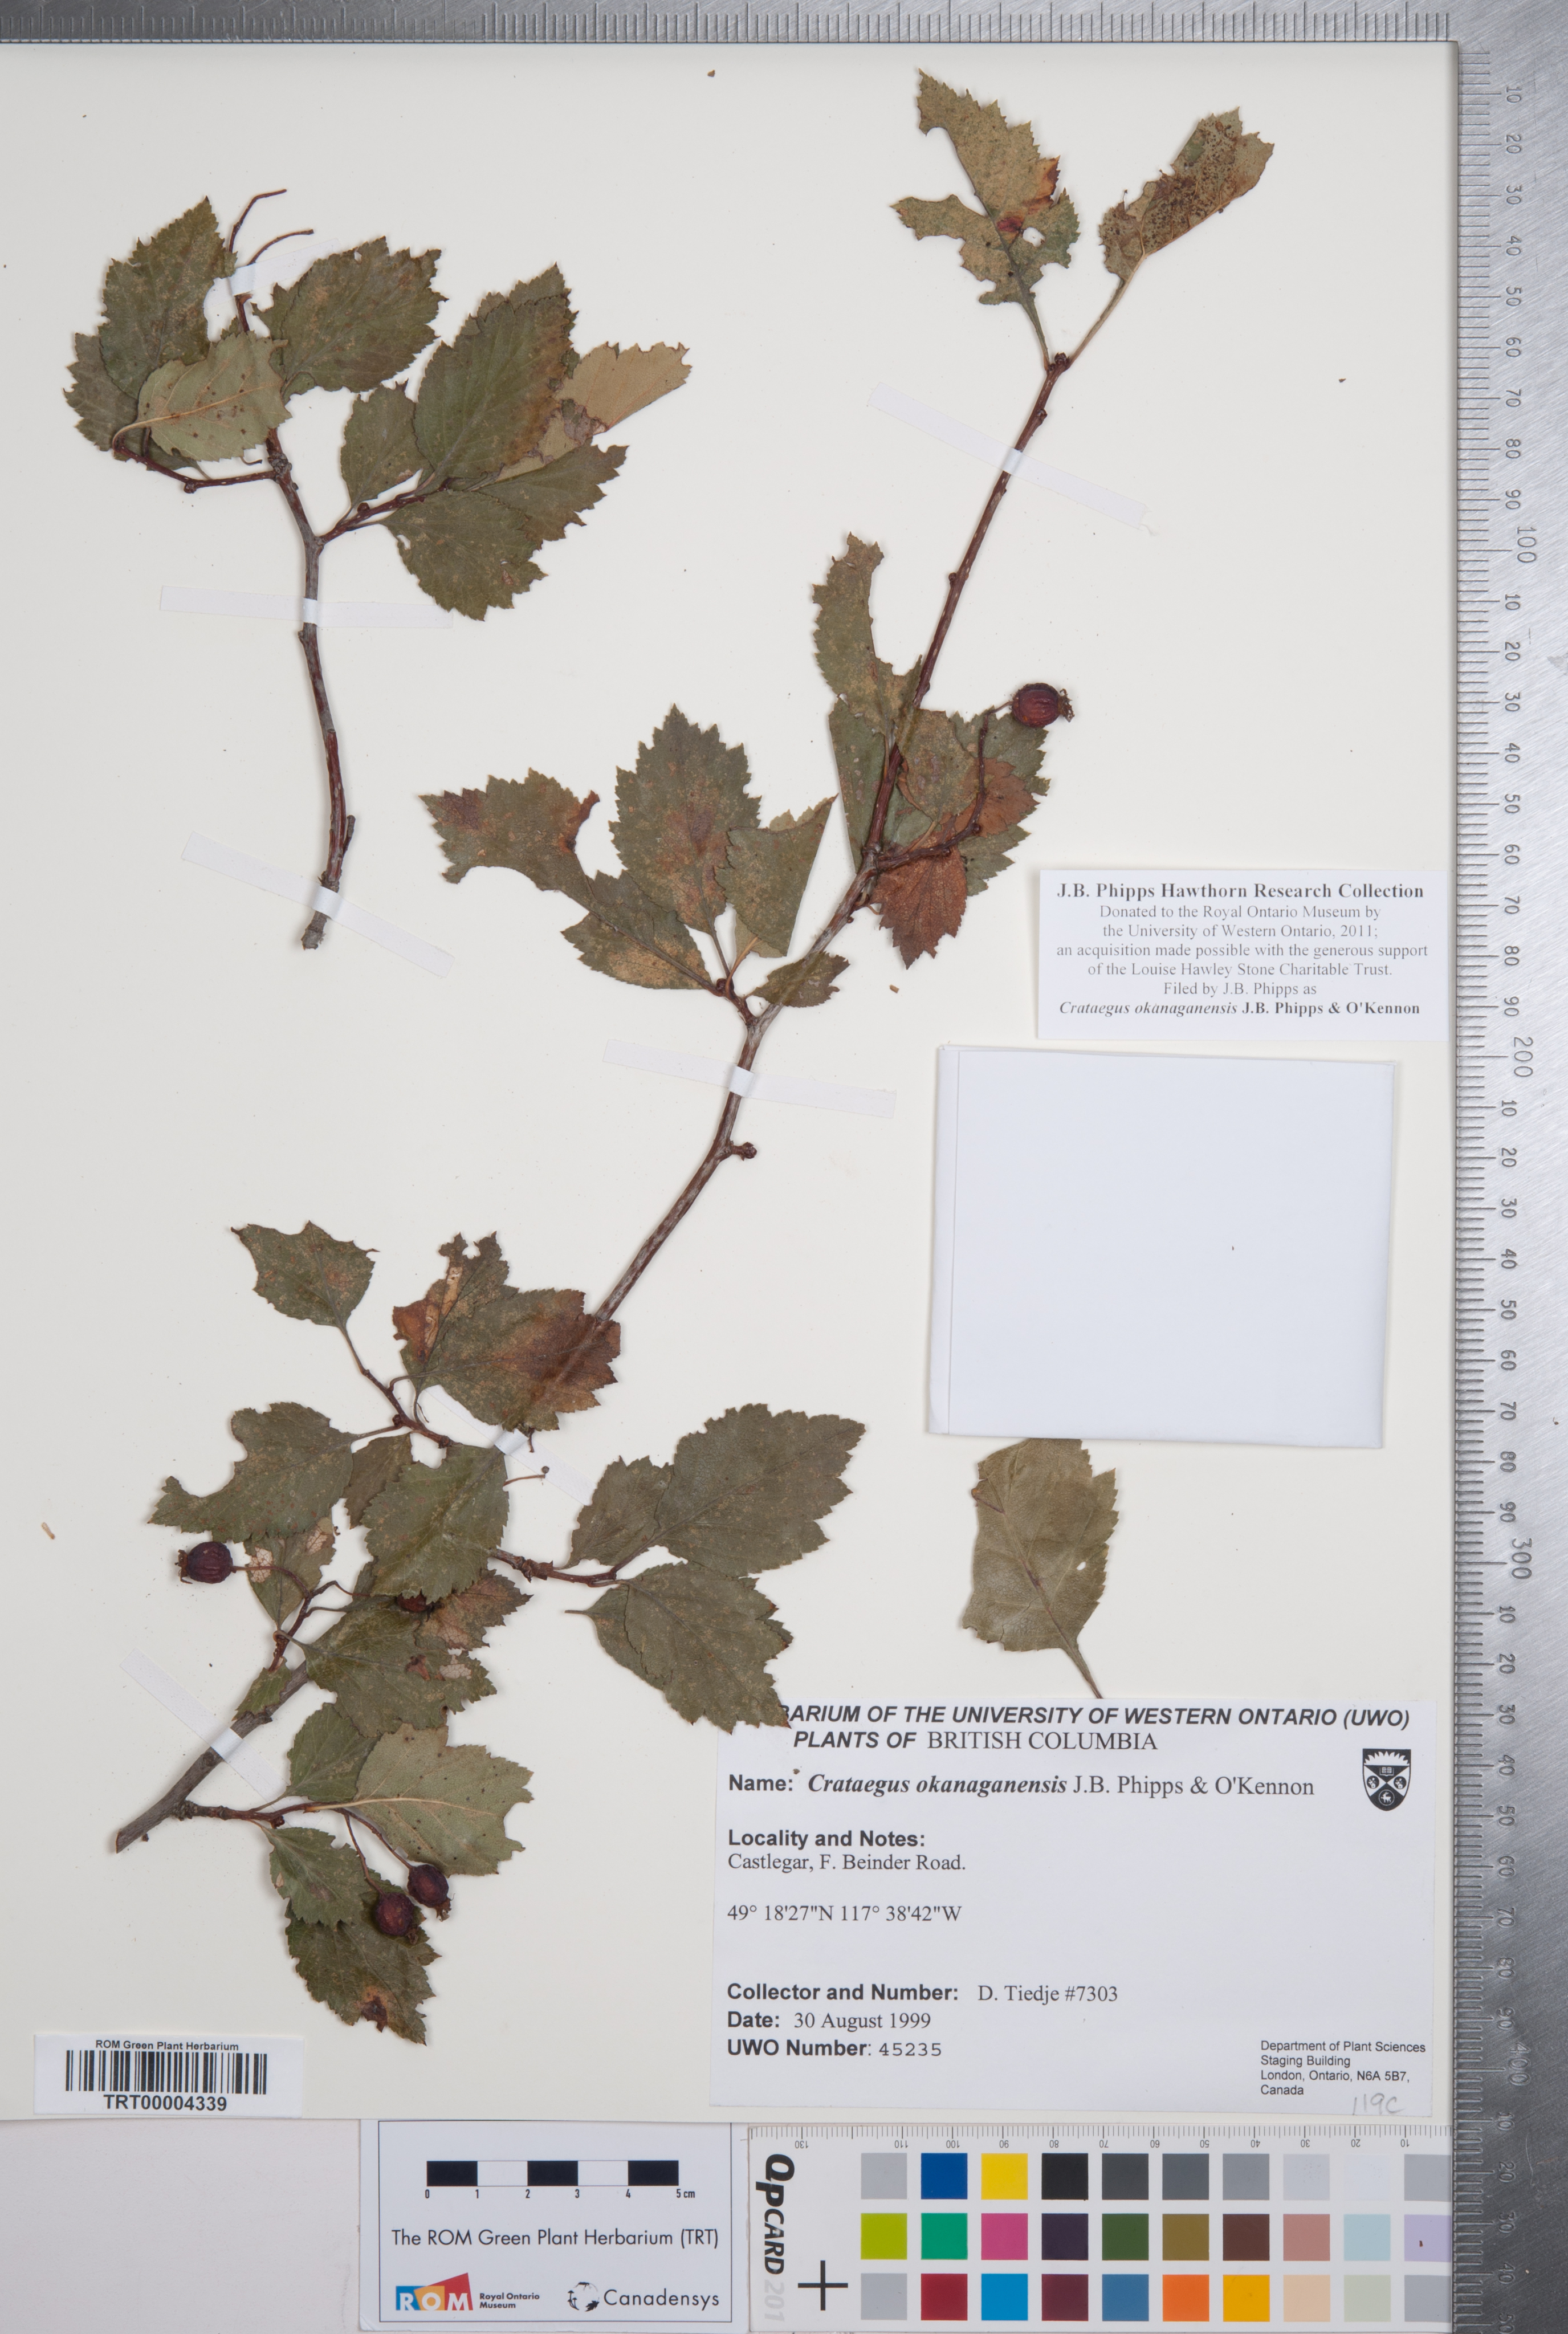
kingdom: Plantae
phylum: Tracheophyta
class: Magnoliopsida
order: Rosales
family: Rosaceae
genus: Crataegus
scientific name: Crataegus okanaganensis
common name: Okanagan valley hawthorn
